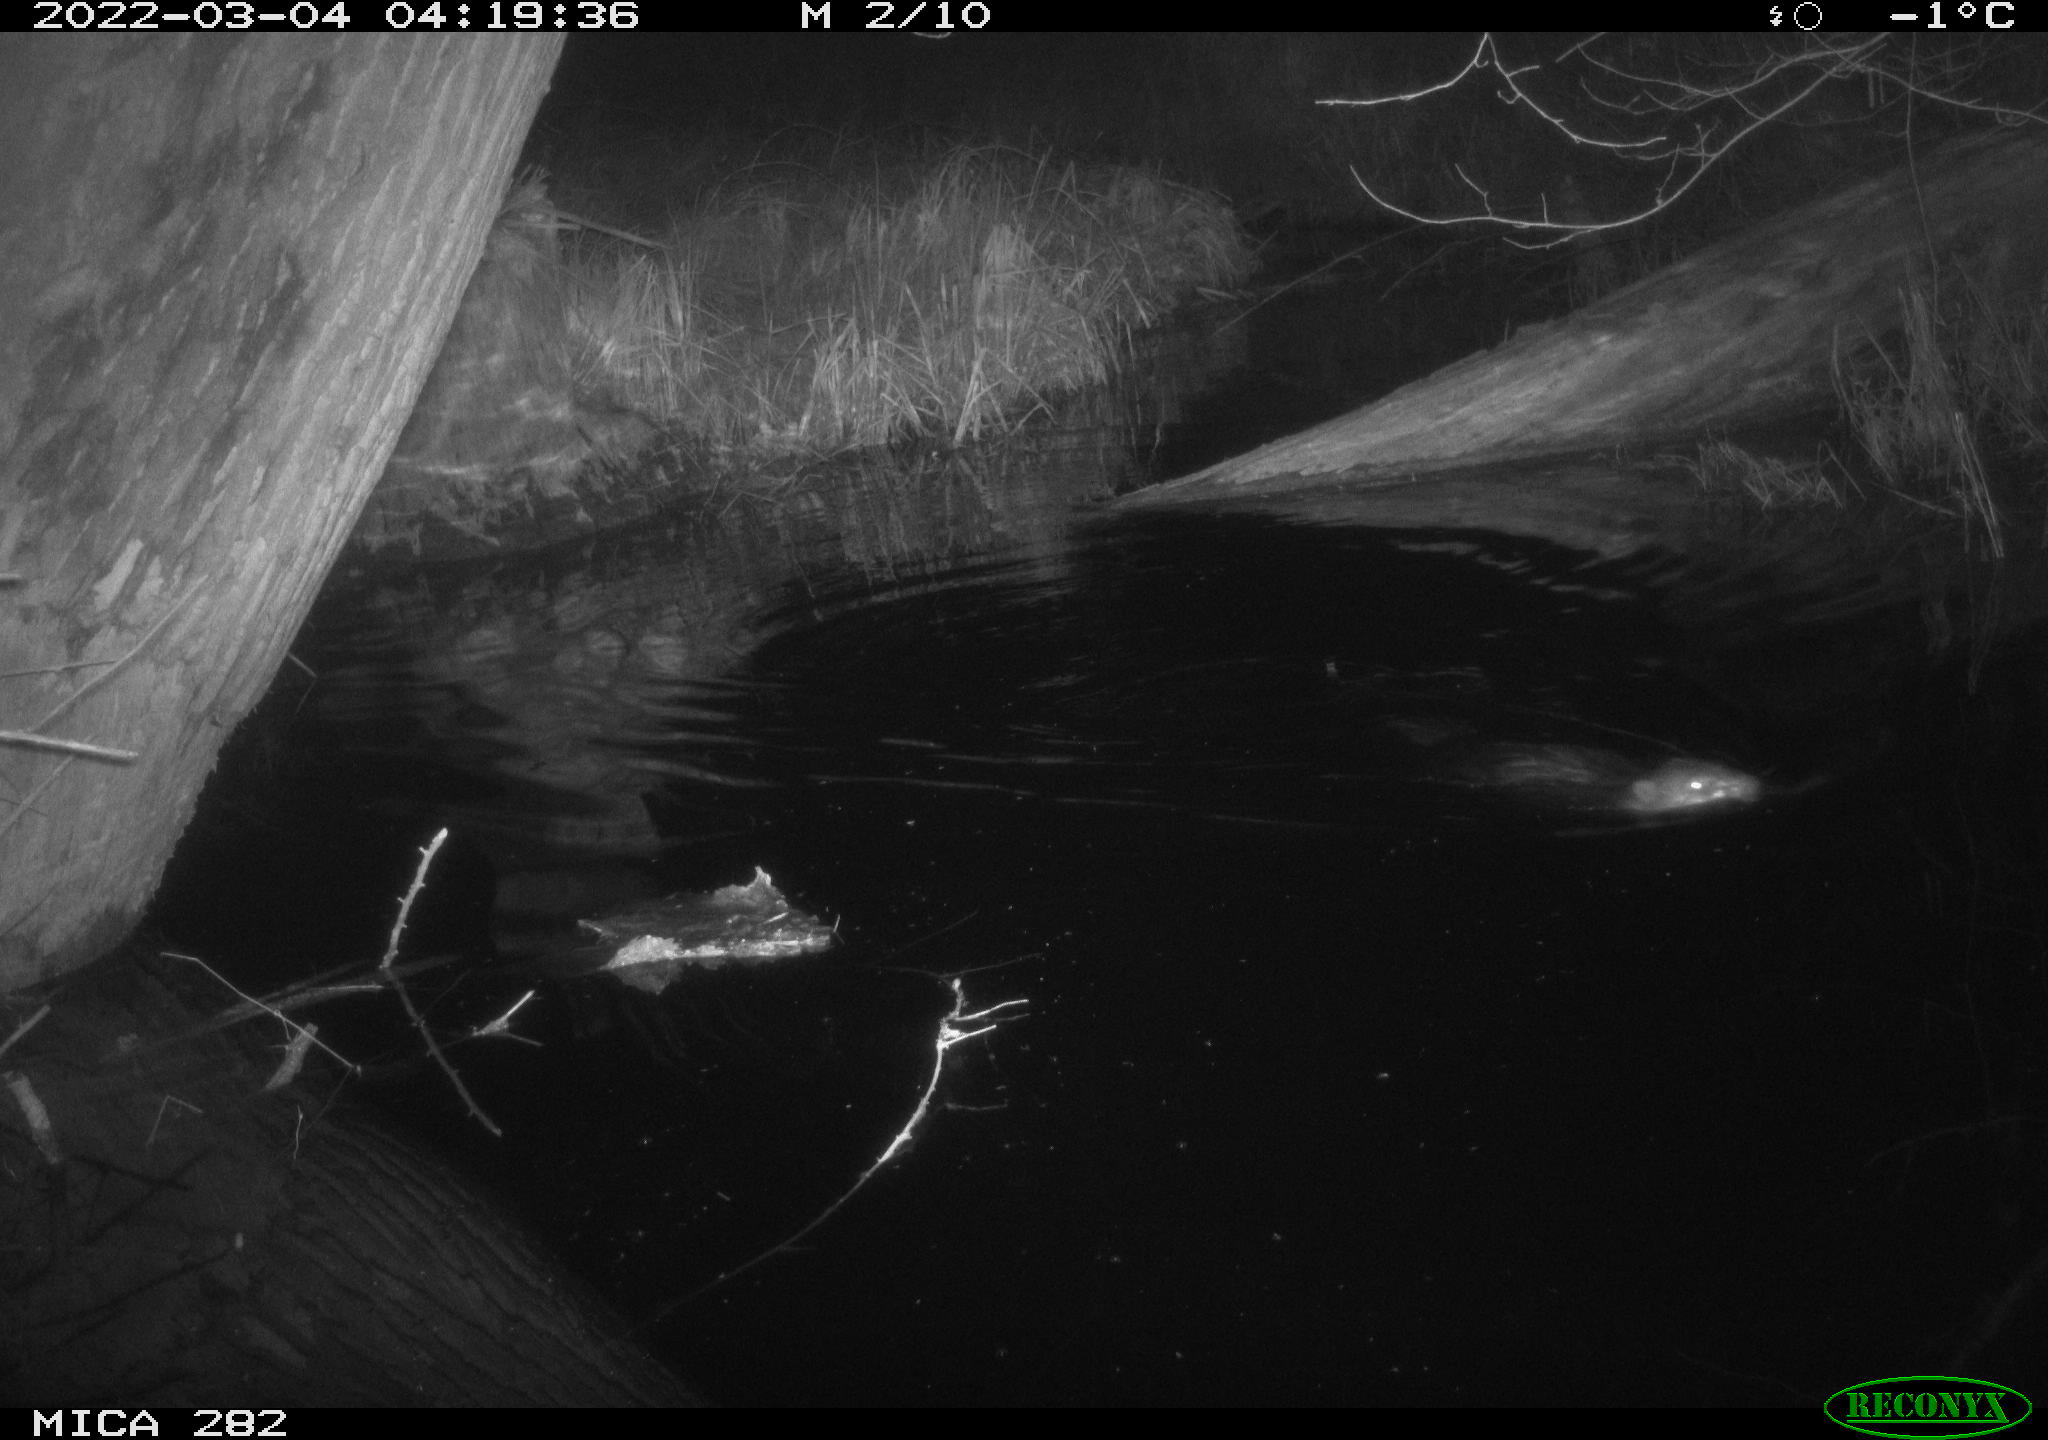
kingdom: Animalia
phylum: Chordata
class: Mammalia
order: Rodentia
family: Castoridae
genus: Castor
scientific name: Castor fiber
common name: Eurasian beaver
